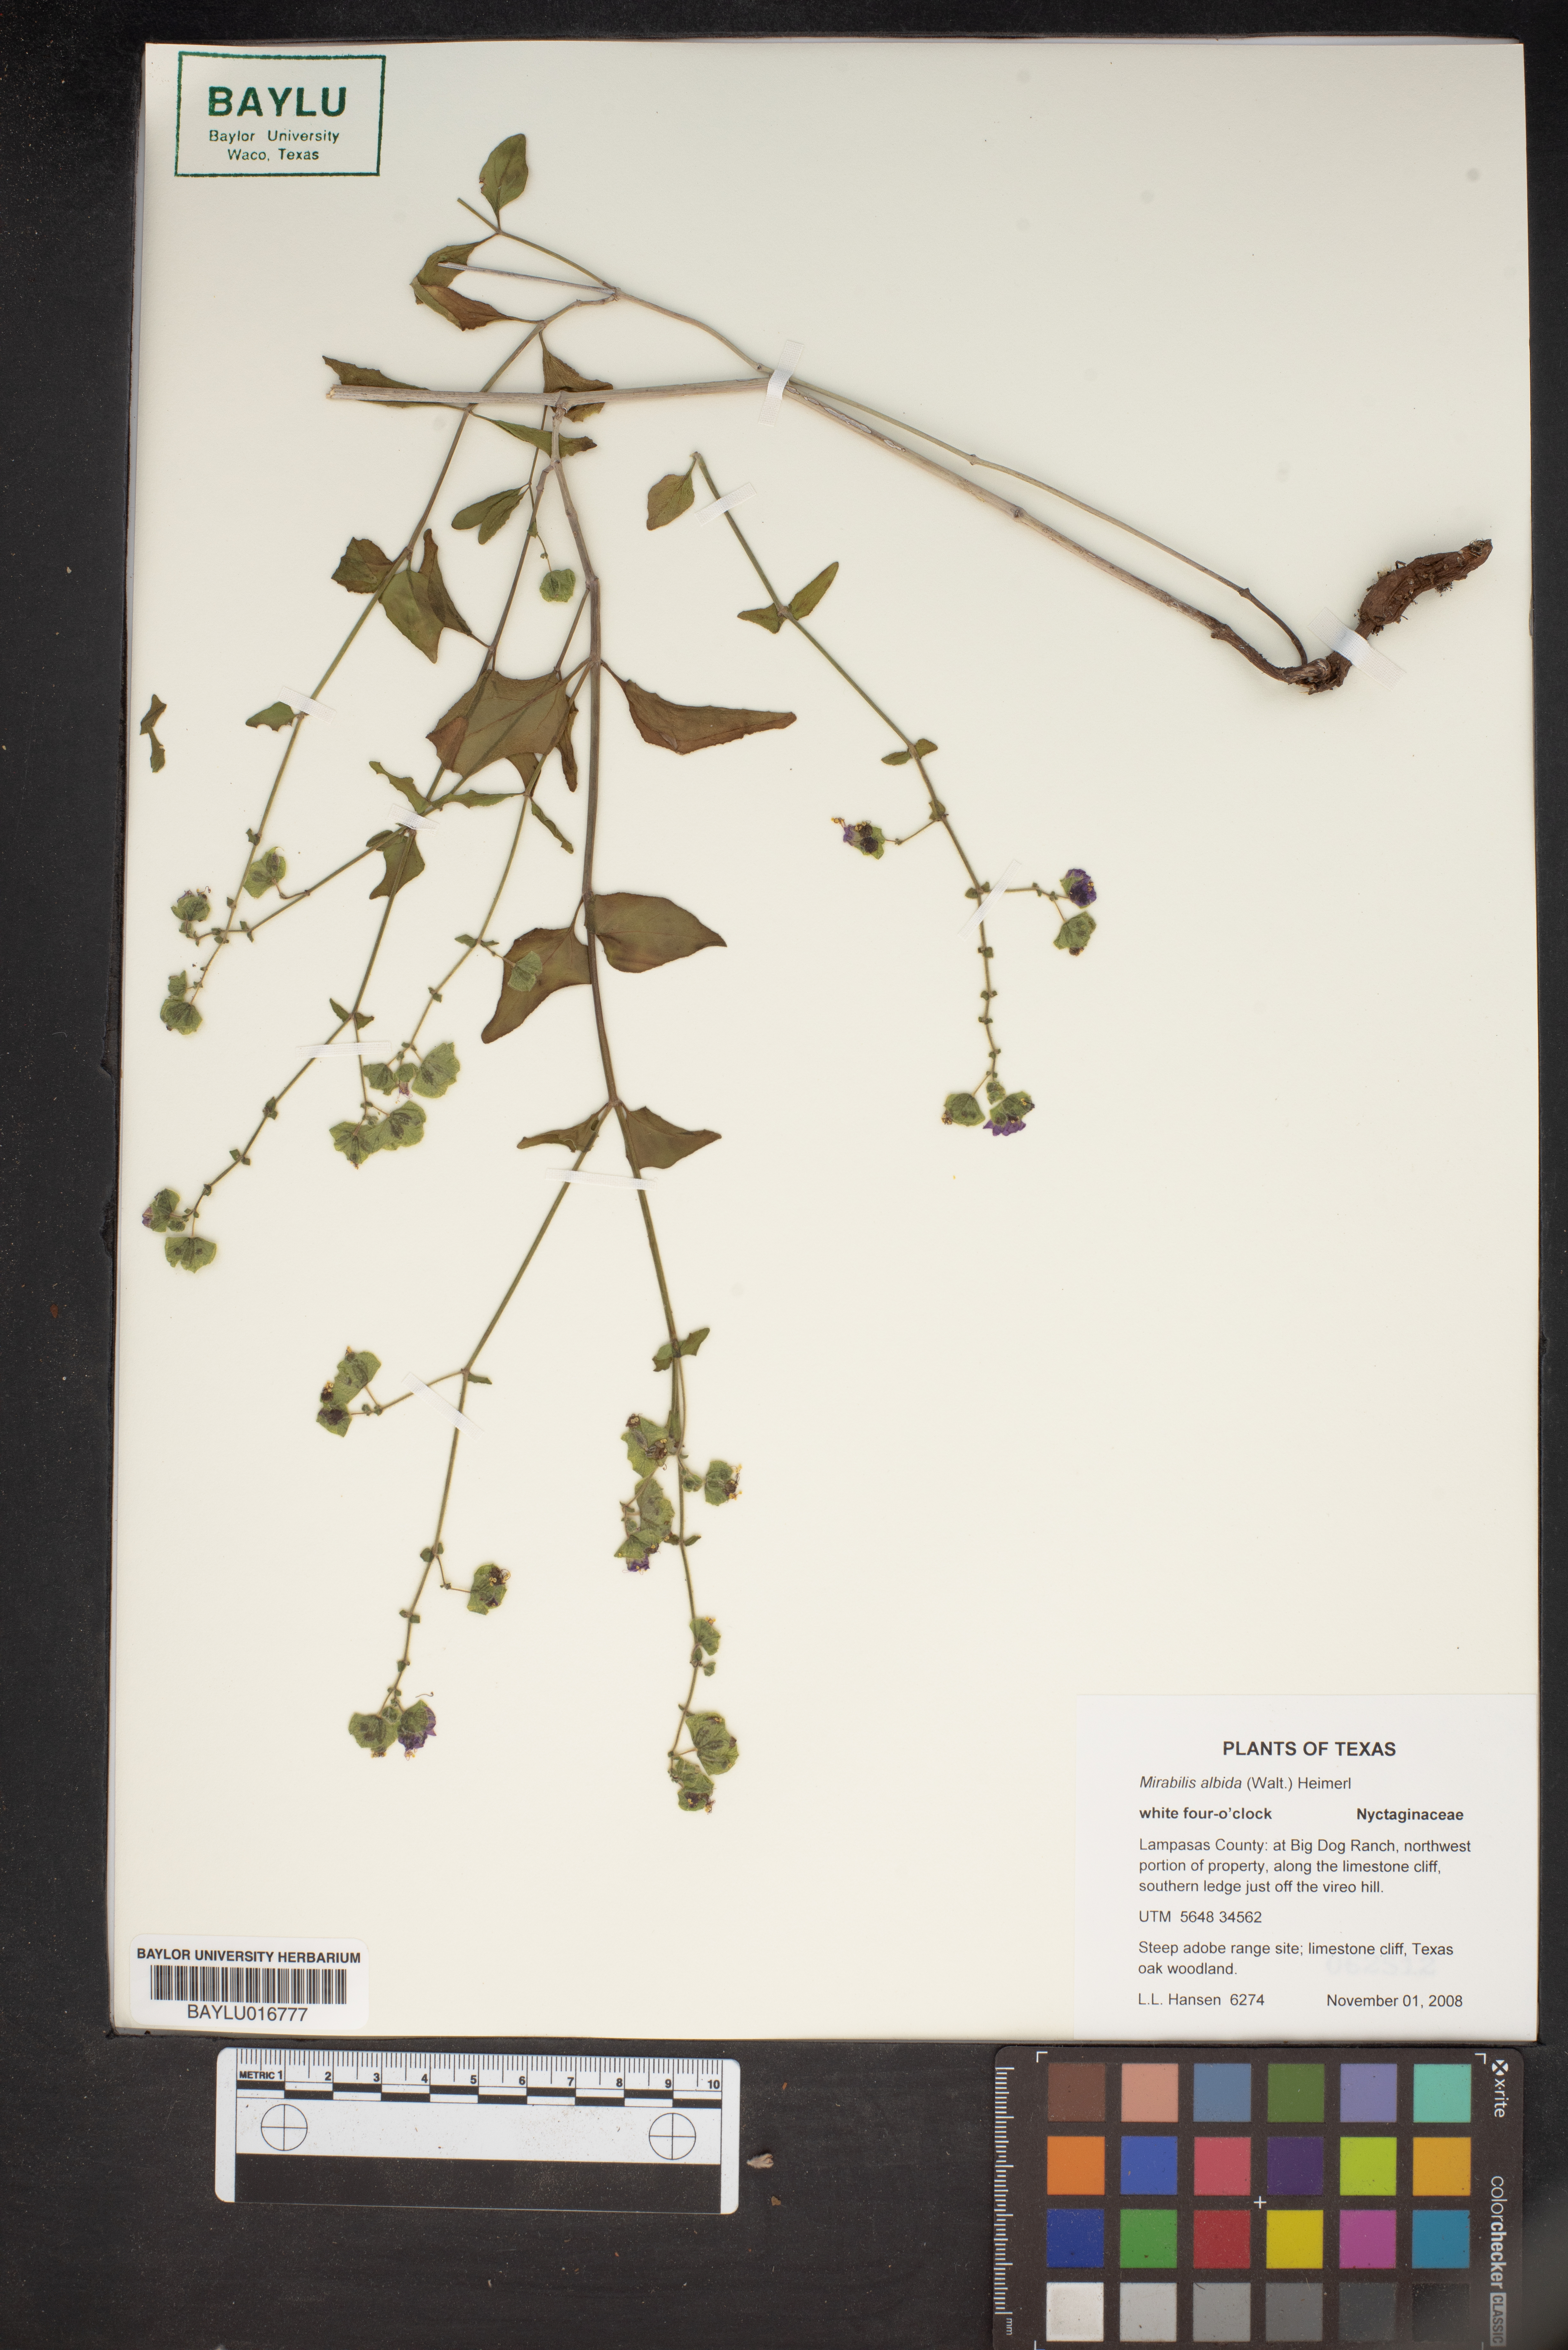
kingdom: Plantae
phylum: Tracheophyta
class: Magnoliopsida
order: Caryophyllales
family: Nyctaginaceae
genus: Mirabilis
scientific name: Mirabilis albida
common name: Hairy four-o'clock
